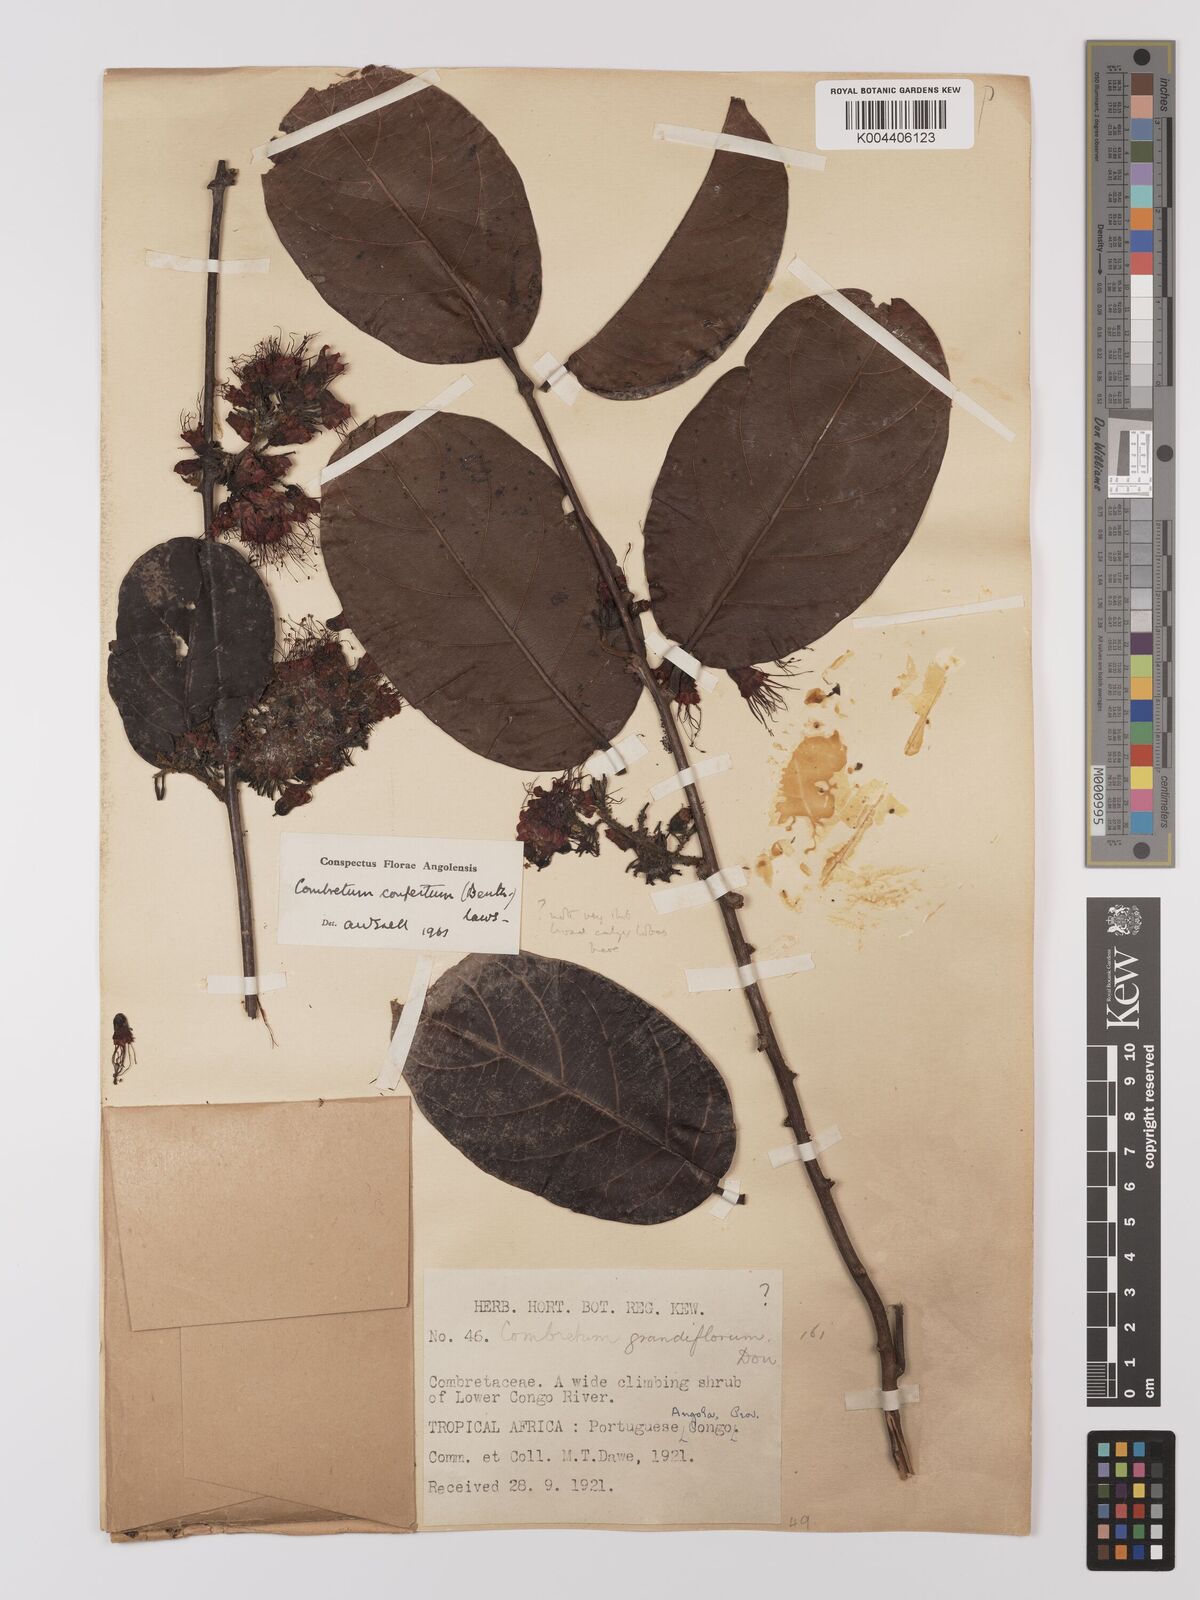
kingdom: Plantae
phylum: Tracheophyta
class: Magnoliopsida
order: Myrtales
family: Combretaceae
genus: Combretum
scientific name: Combretum confertum
